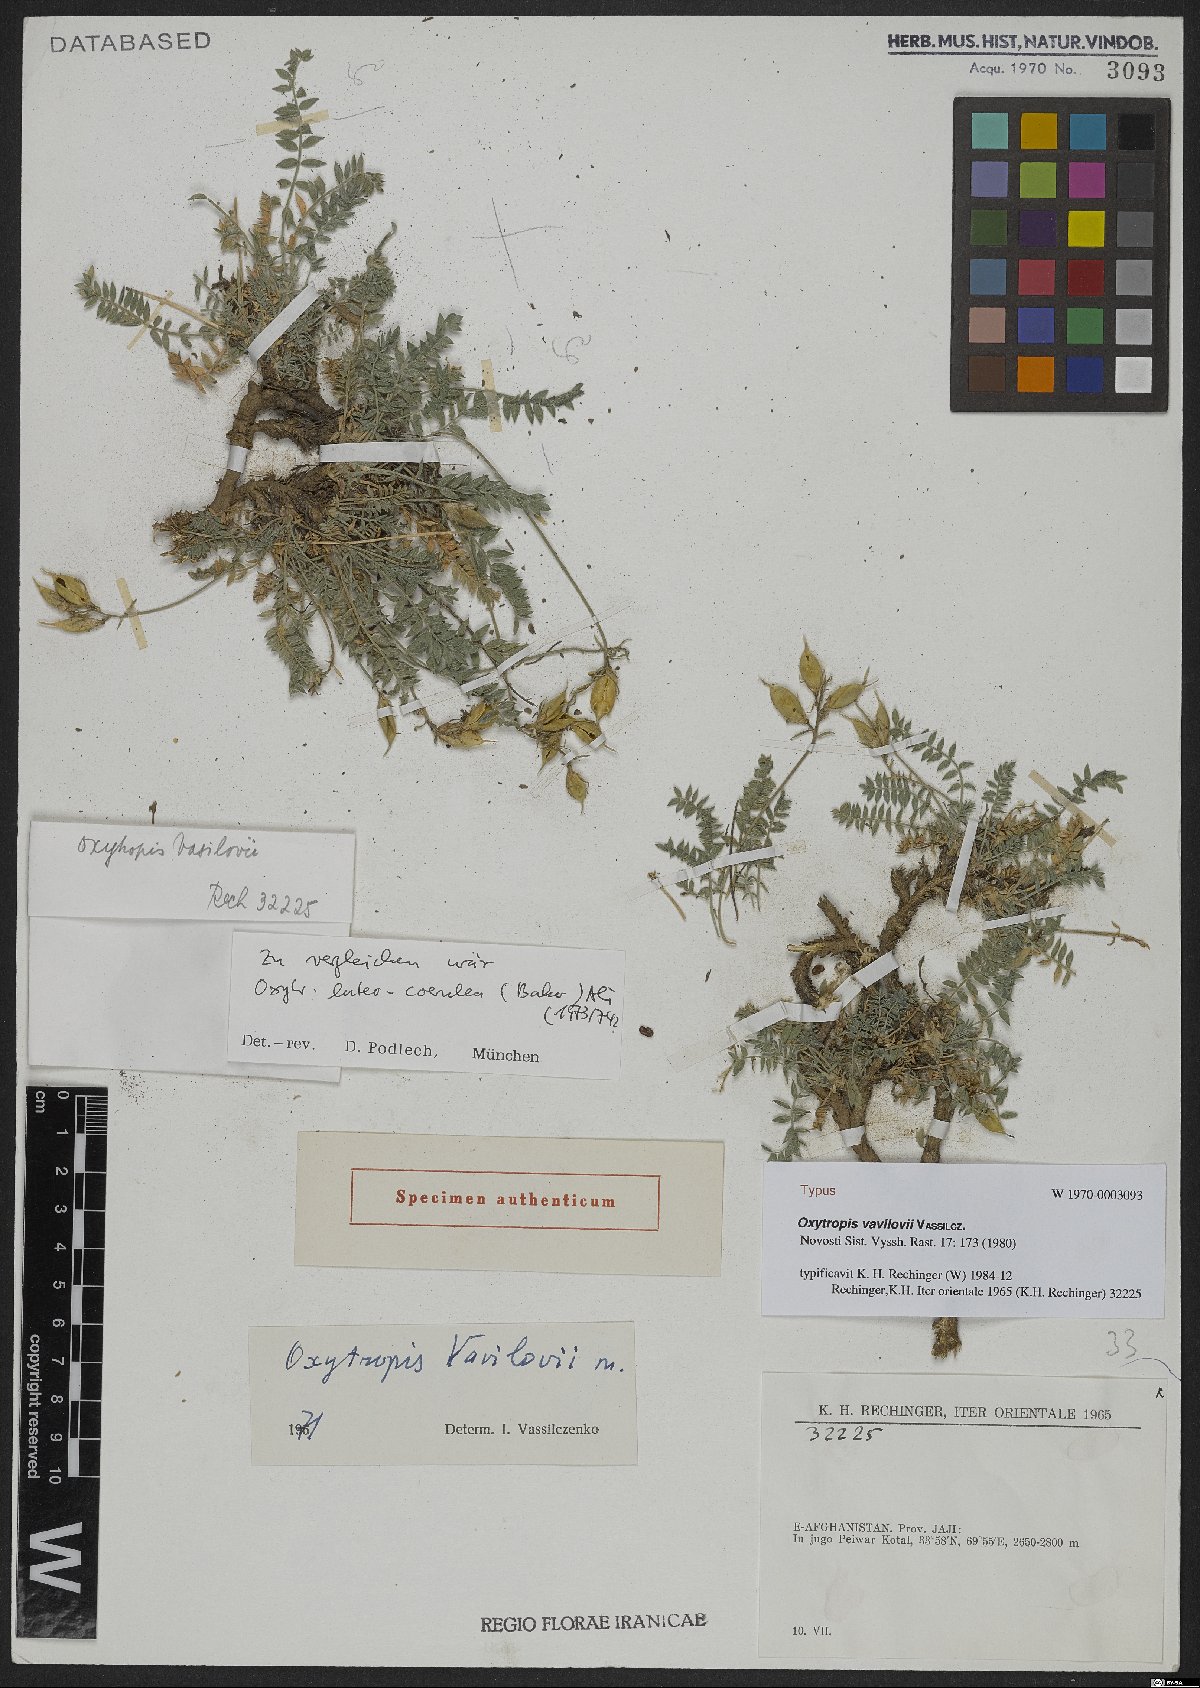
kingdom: Plantae
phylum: Tracheophyta
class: Magnoliopsida
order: Fabales
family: Fabaceae
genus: Oxytropis
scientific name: Oxytropis vavilovii
